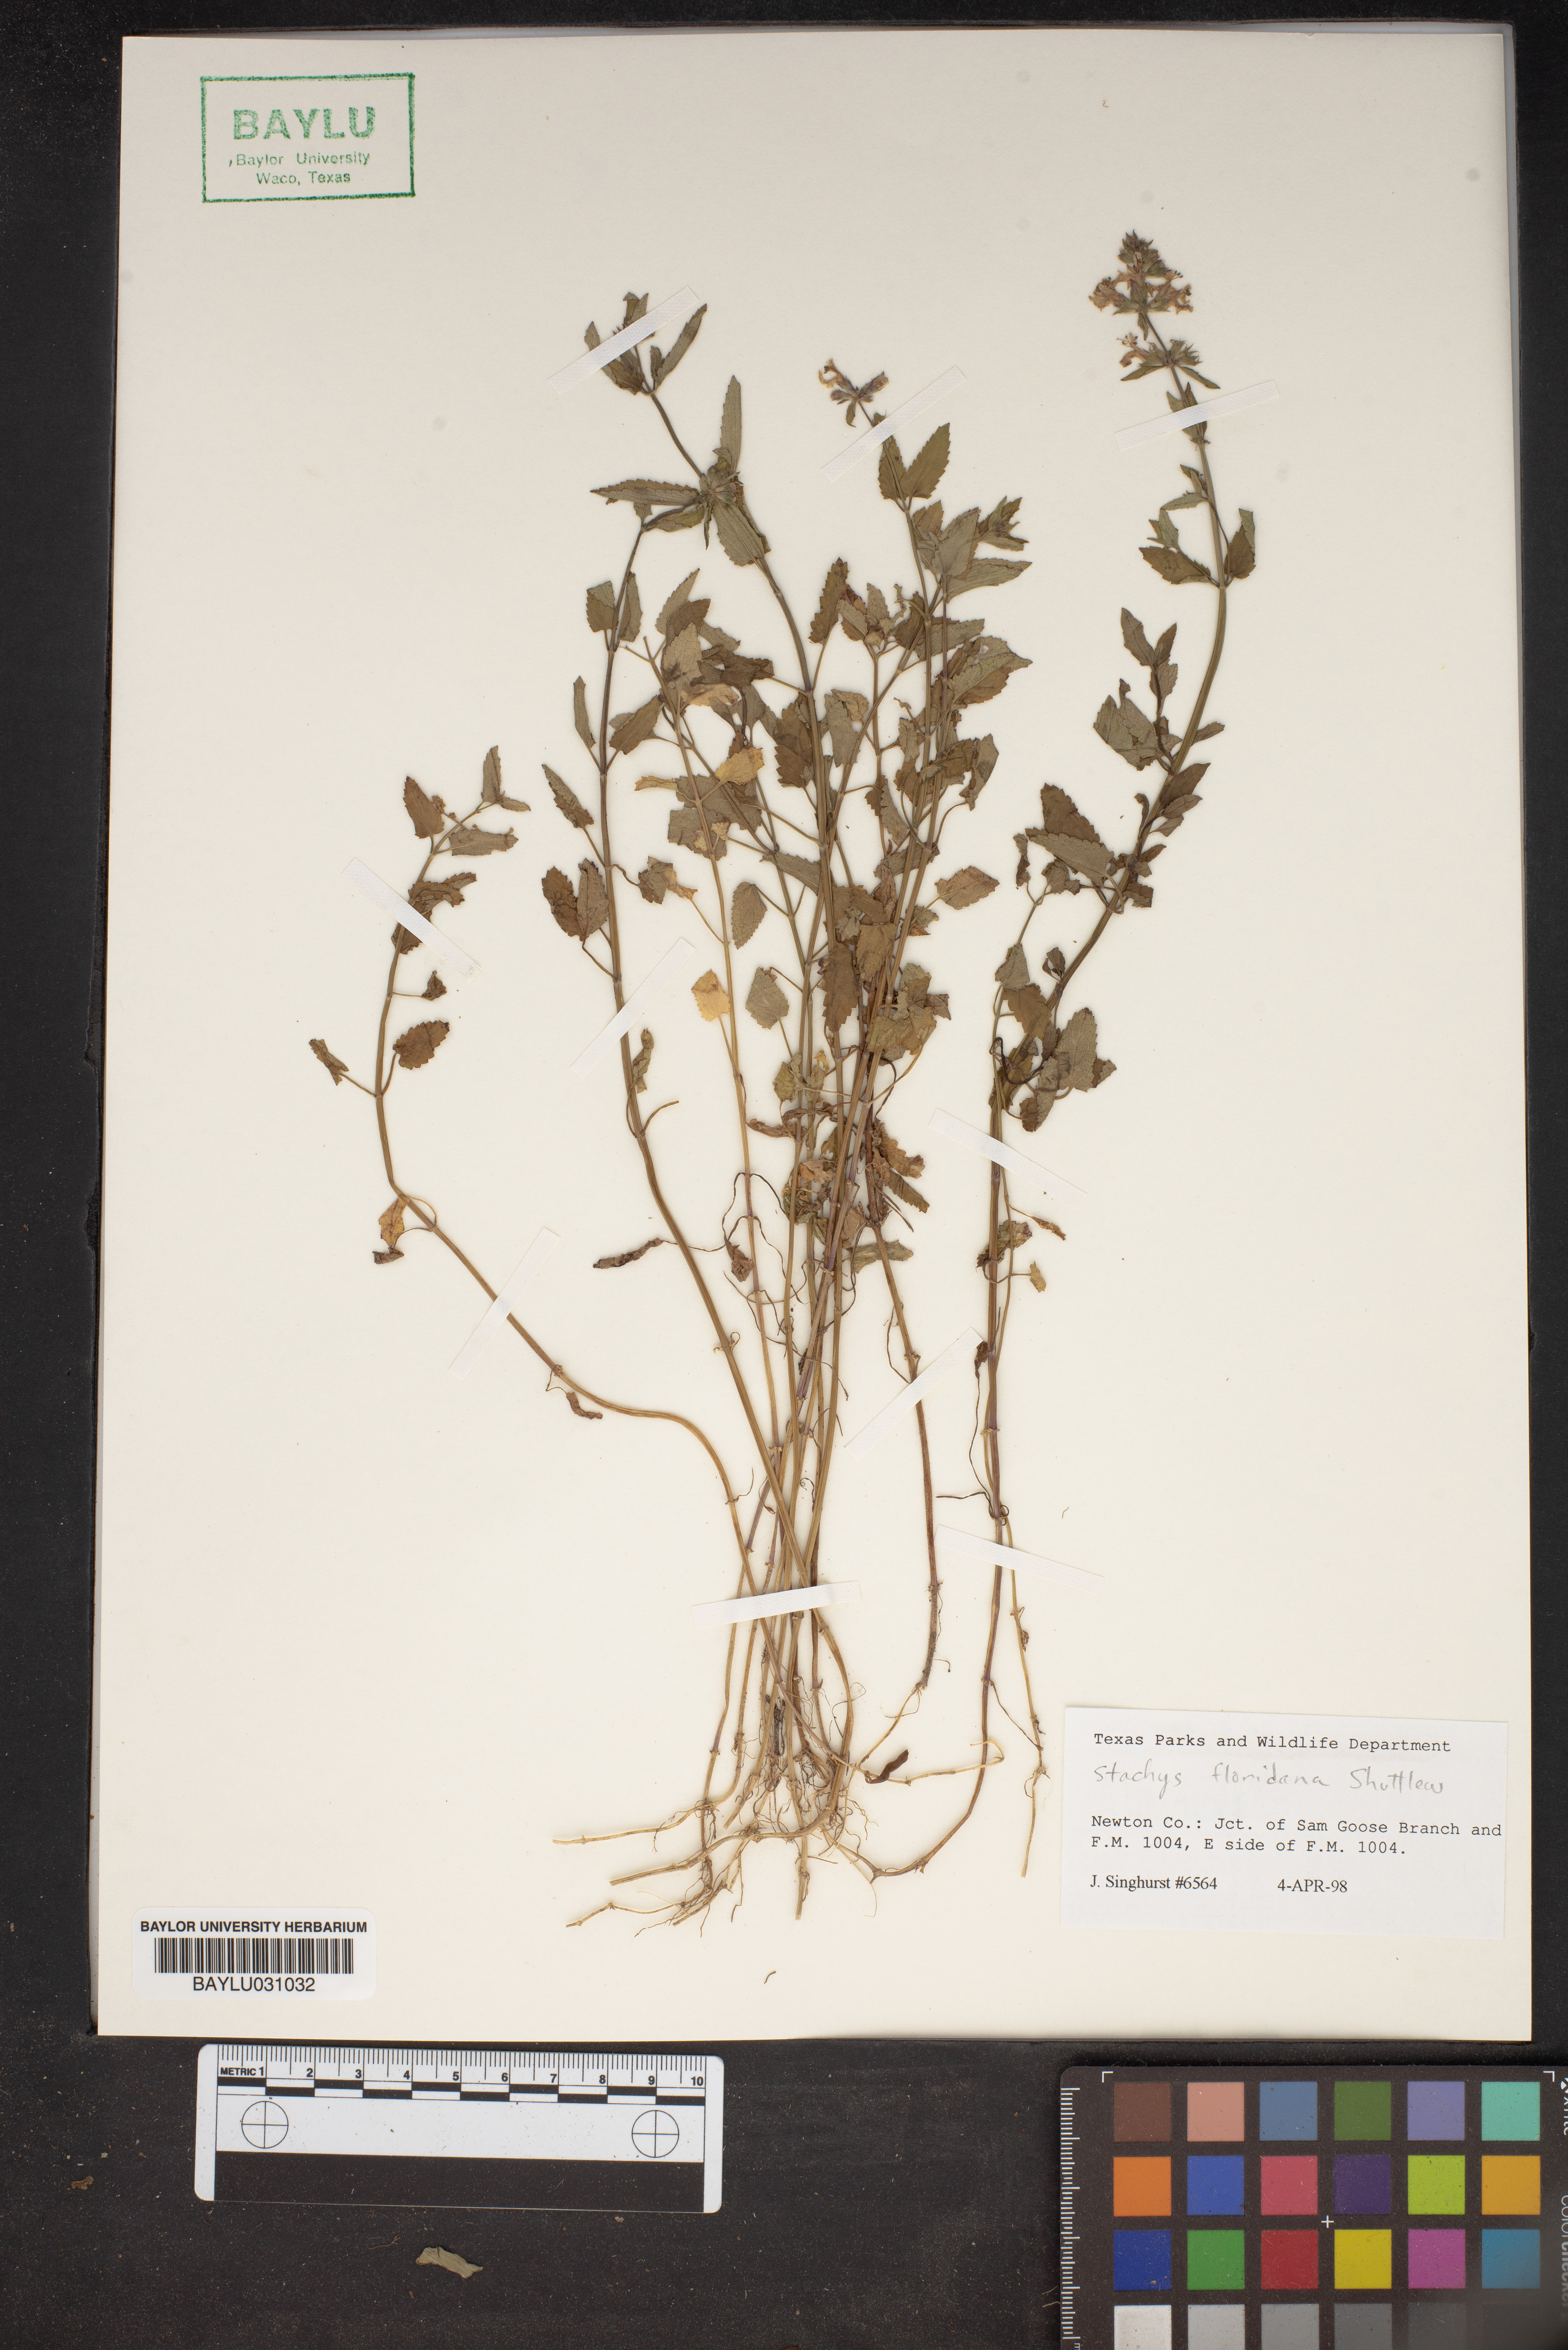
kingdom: Plantae
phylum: Tracheophyta
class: Magnoliopsida
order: Lamiales
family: Lamiaceae
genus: Stachys
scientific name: Stachys floridana
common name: Florida betony
